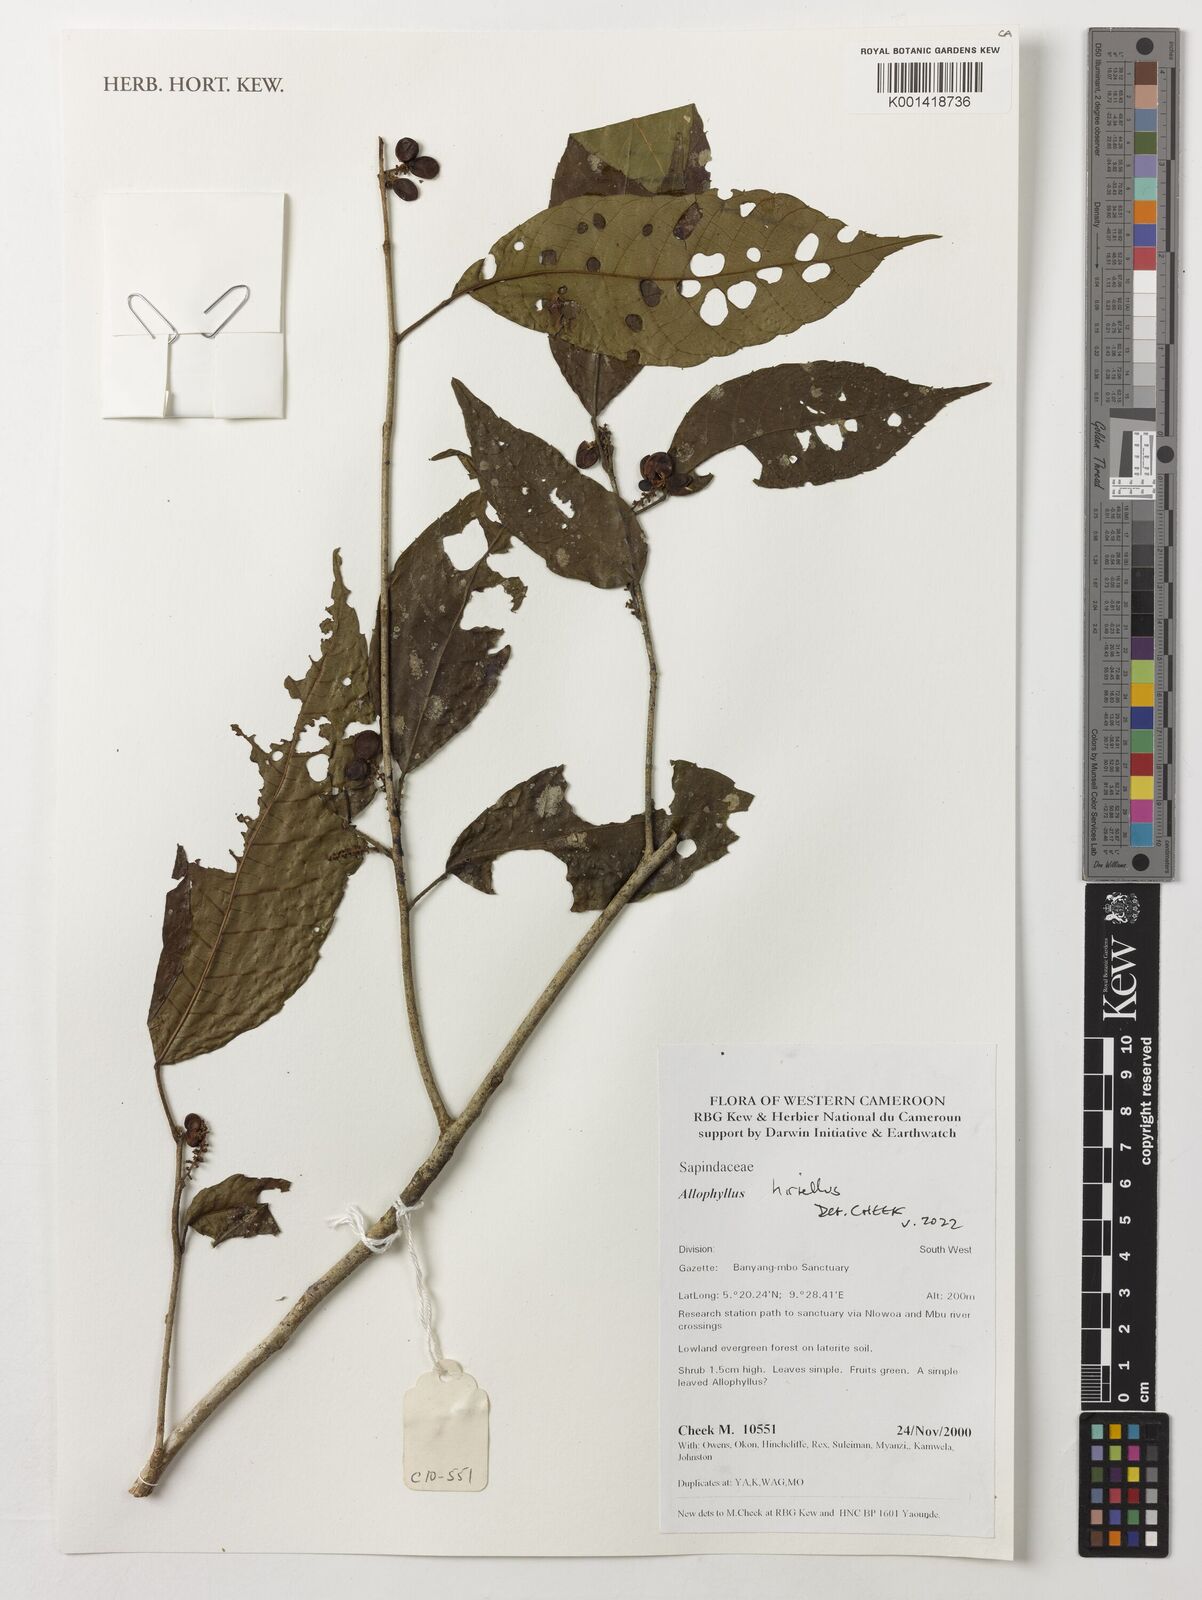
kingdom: Plantae
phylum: Tracheophyta
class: Magnoliopsida
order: Sapindales
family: Sapindaceae
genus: Allophylus
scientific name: Allophylus hirtellus
